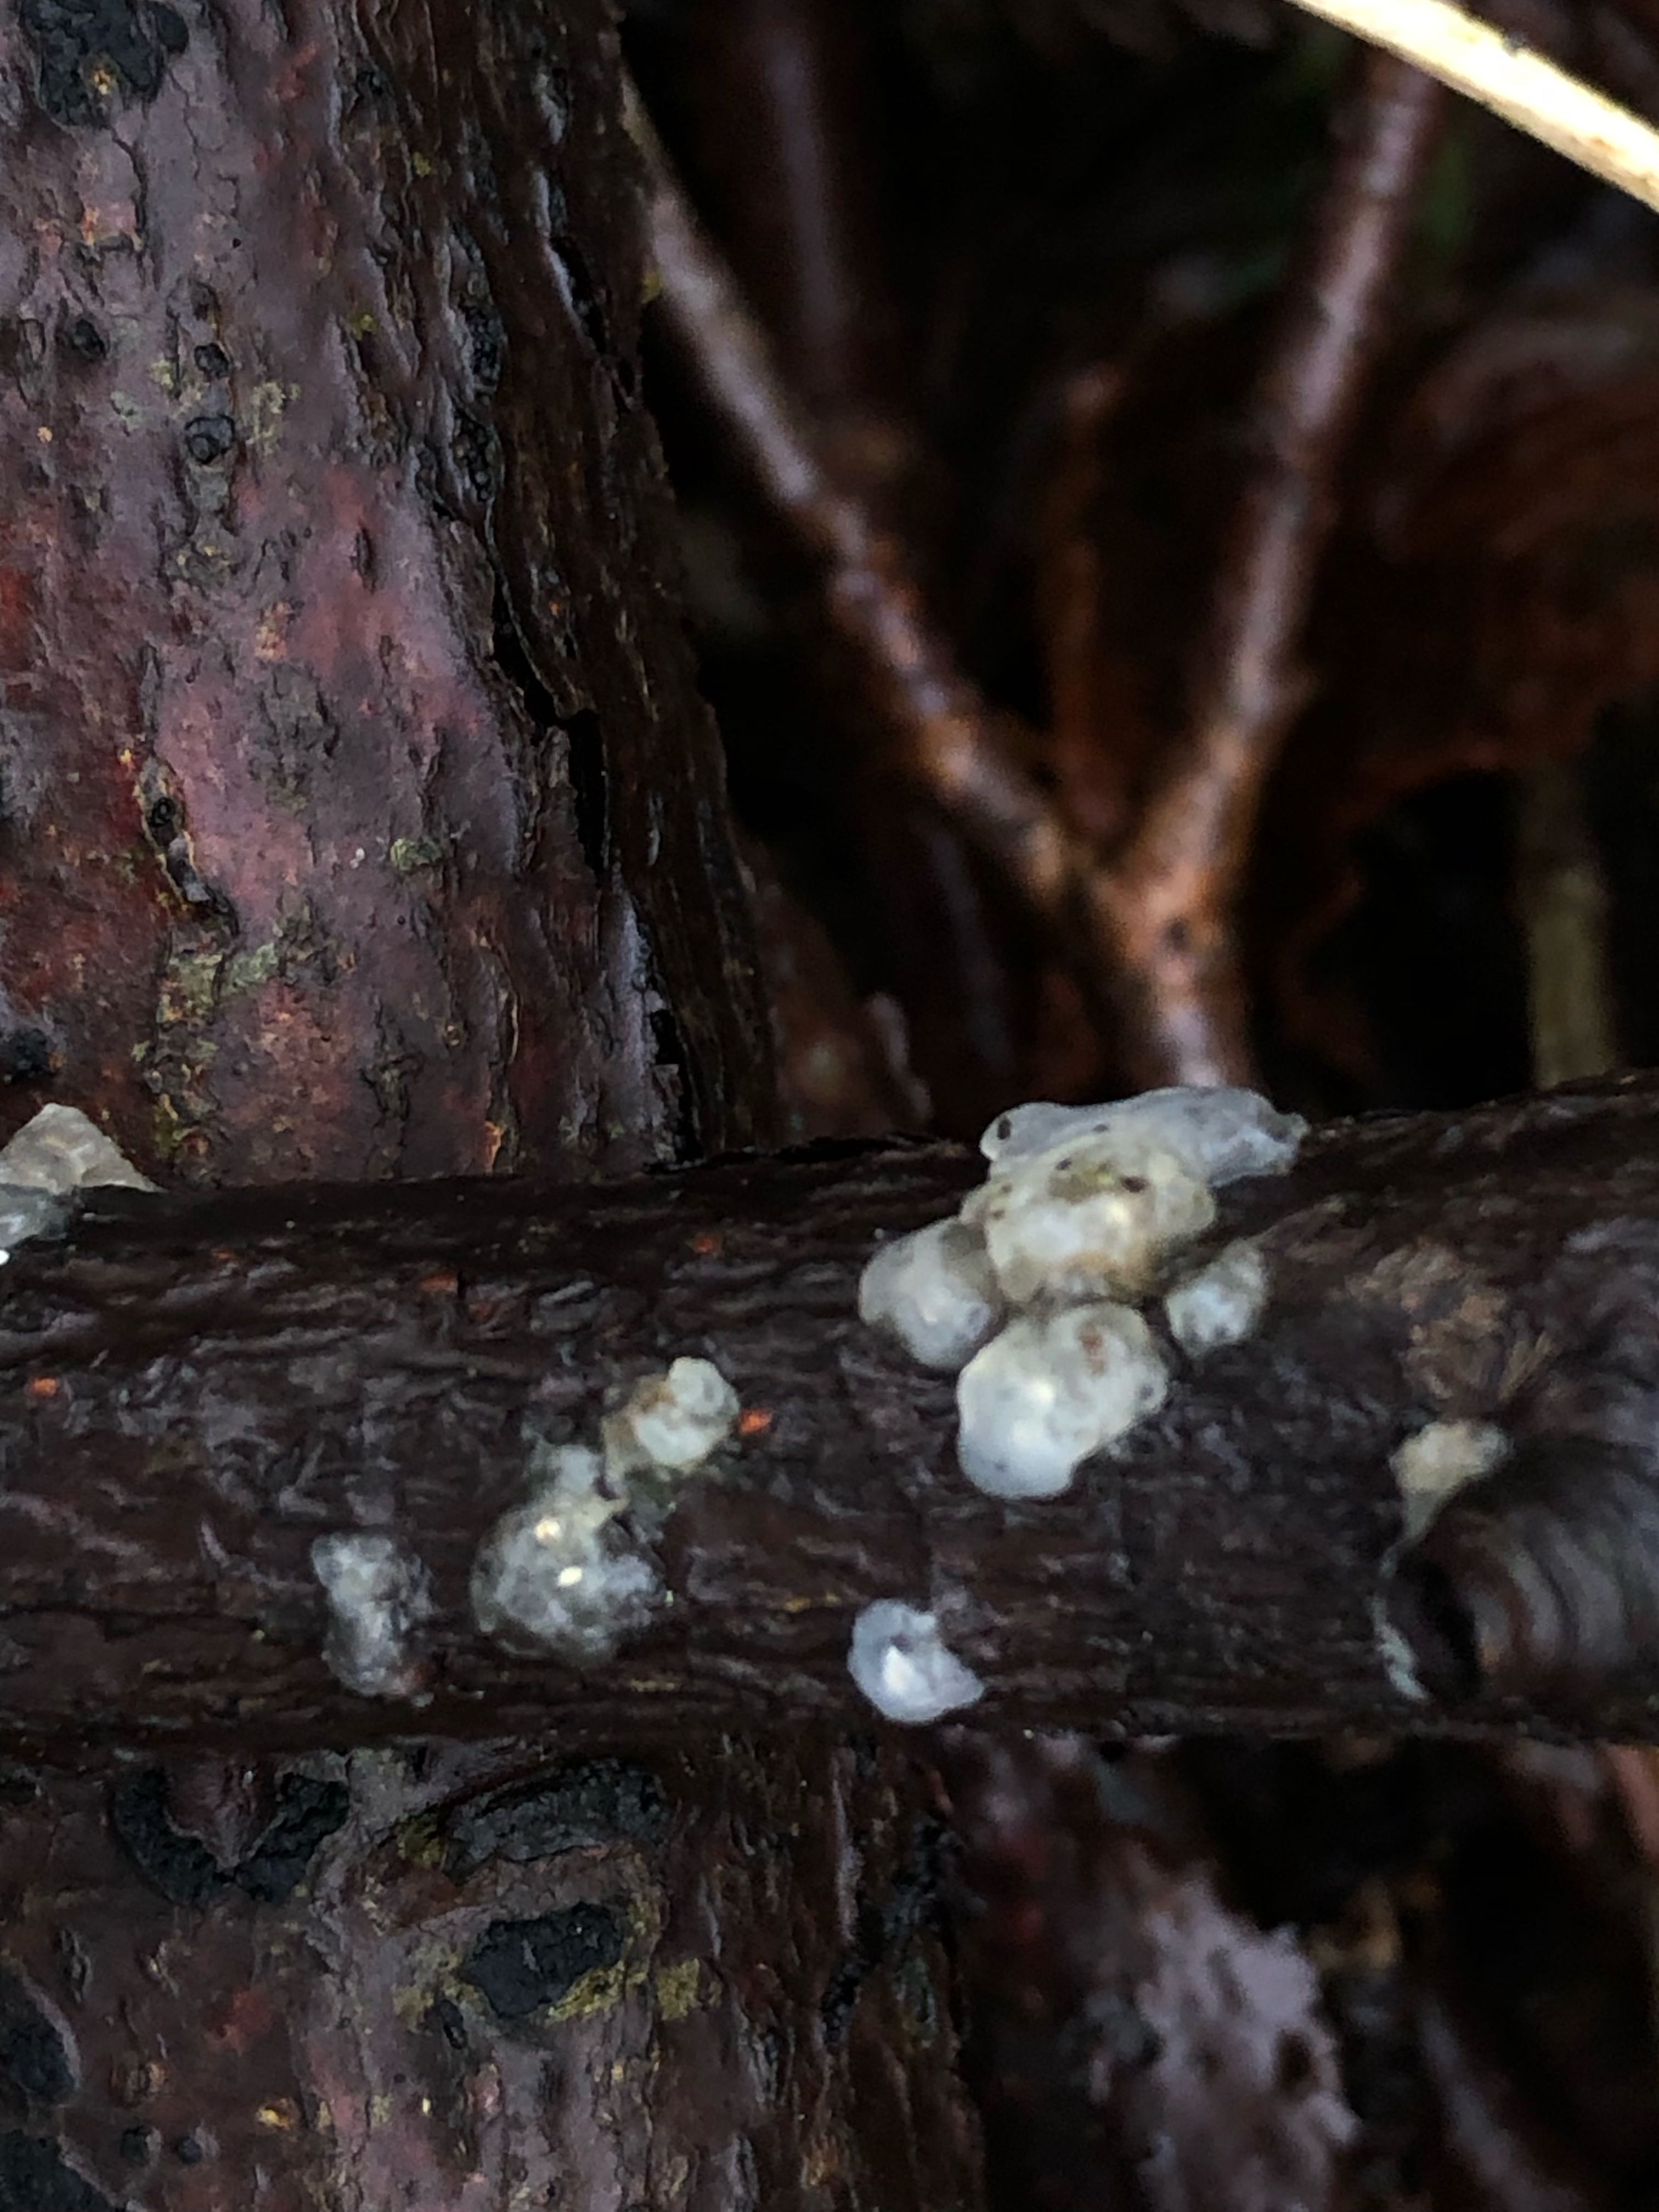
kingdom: Fungi
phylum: Basidiomycota
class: Agaricomycetes
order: Auriculariales
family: Hyaloriaceae
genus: Myxarium
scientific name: Myxarium nucleatum
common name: klar bævretop
